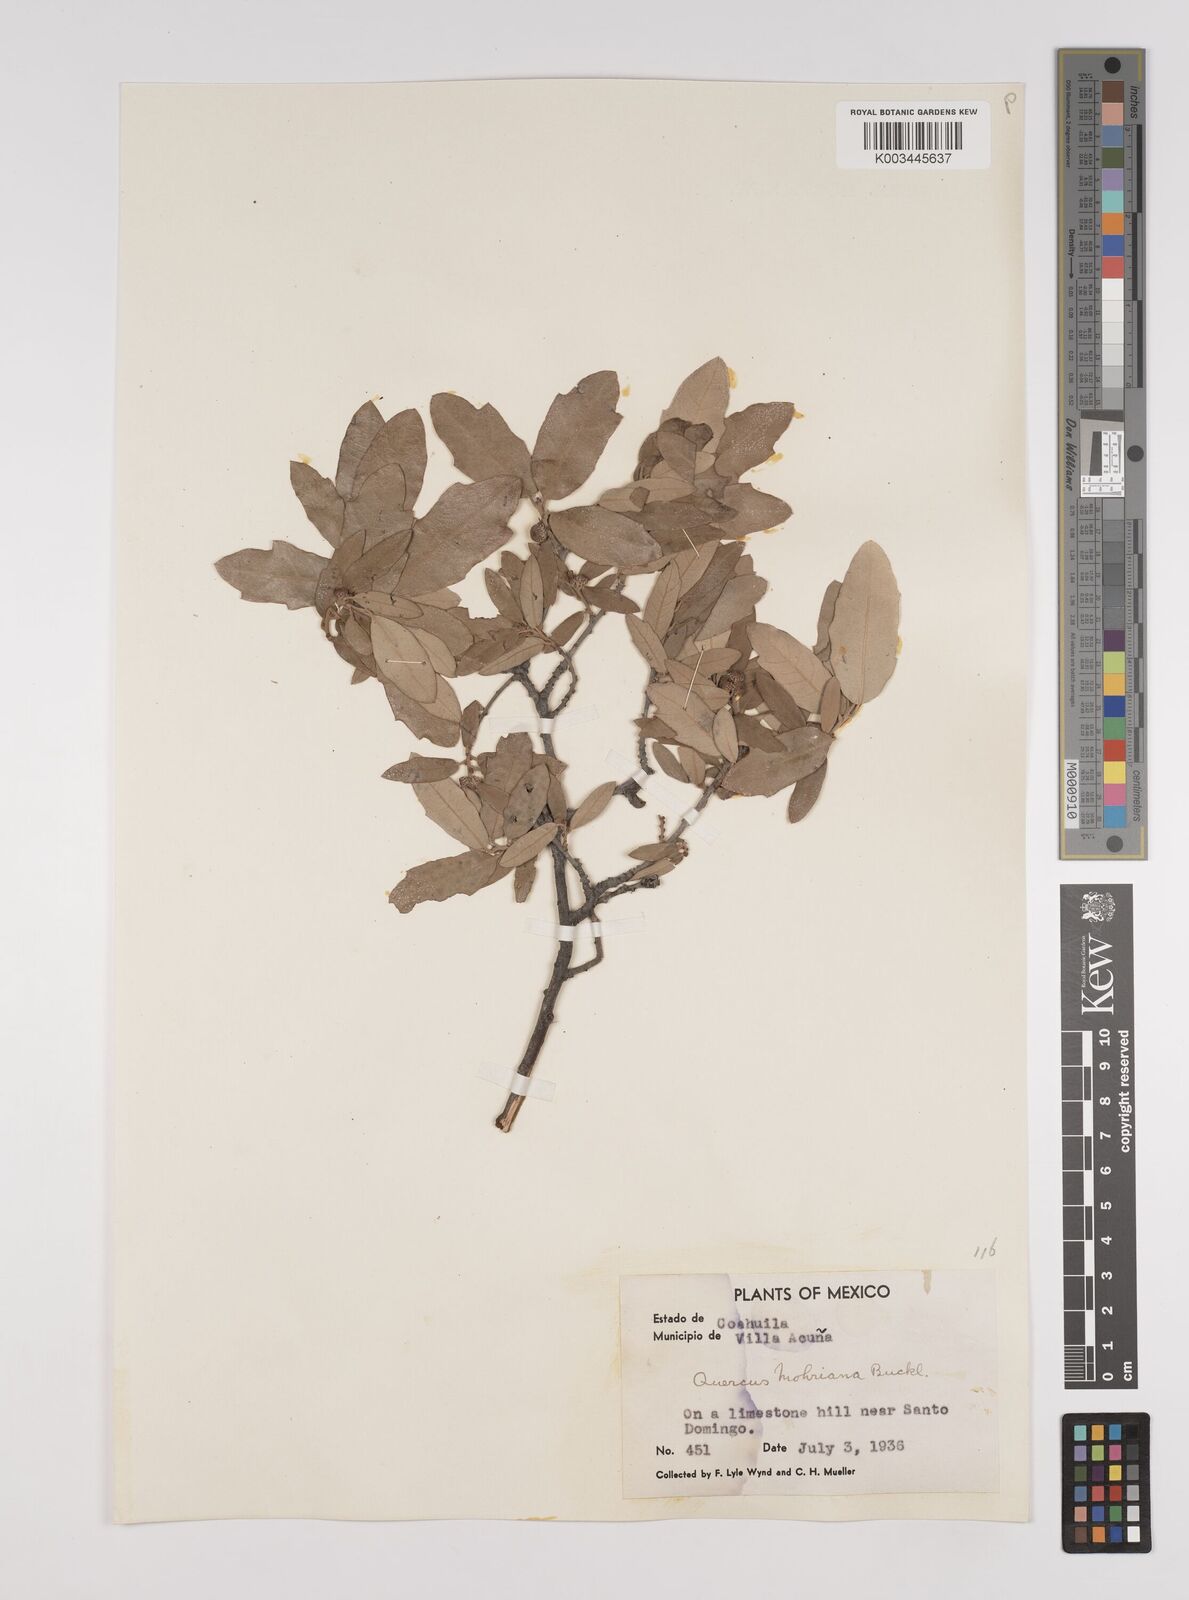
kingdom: Plantae
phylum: Tracheophyta
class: Magnoliopsida
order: Fagales
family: Fagaceae
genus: Quercus
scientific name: Quercus mohriana
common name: Mohr oak
